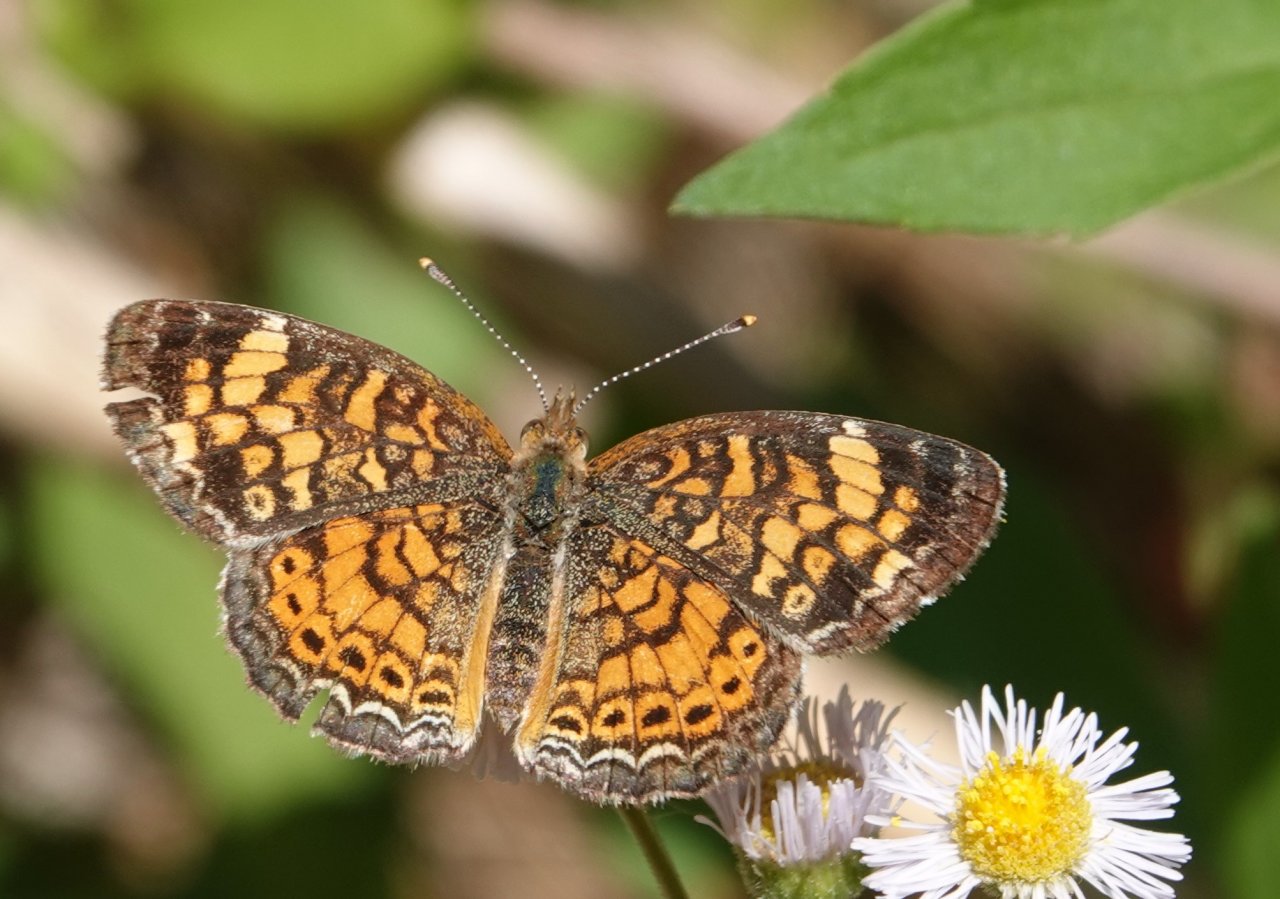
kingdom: Animalia
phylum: Arthropoda
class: Insecta
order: Lepidoptera
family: Nymphalidae
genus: Phyciodes
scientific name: Phyciodes tharos
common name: Pearl Crescent
